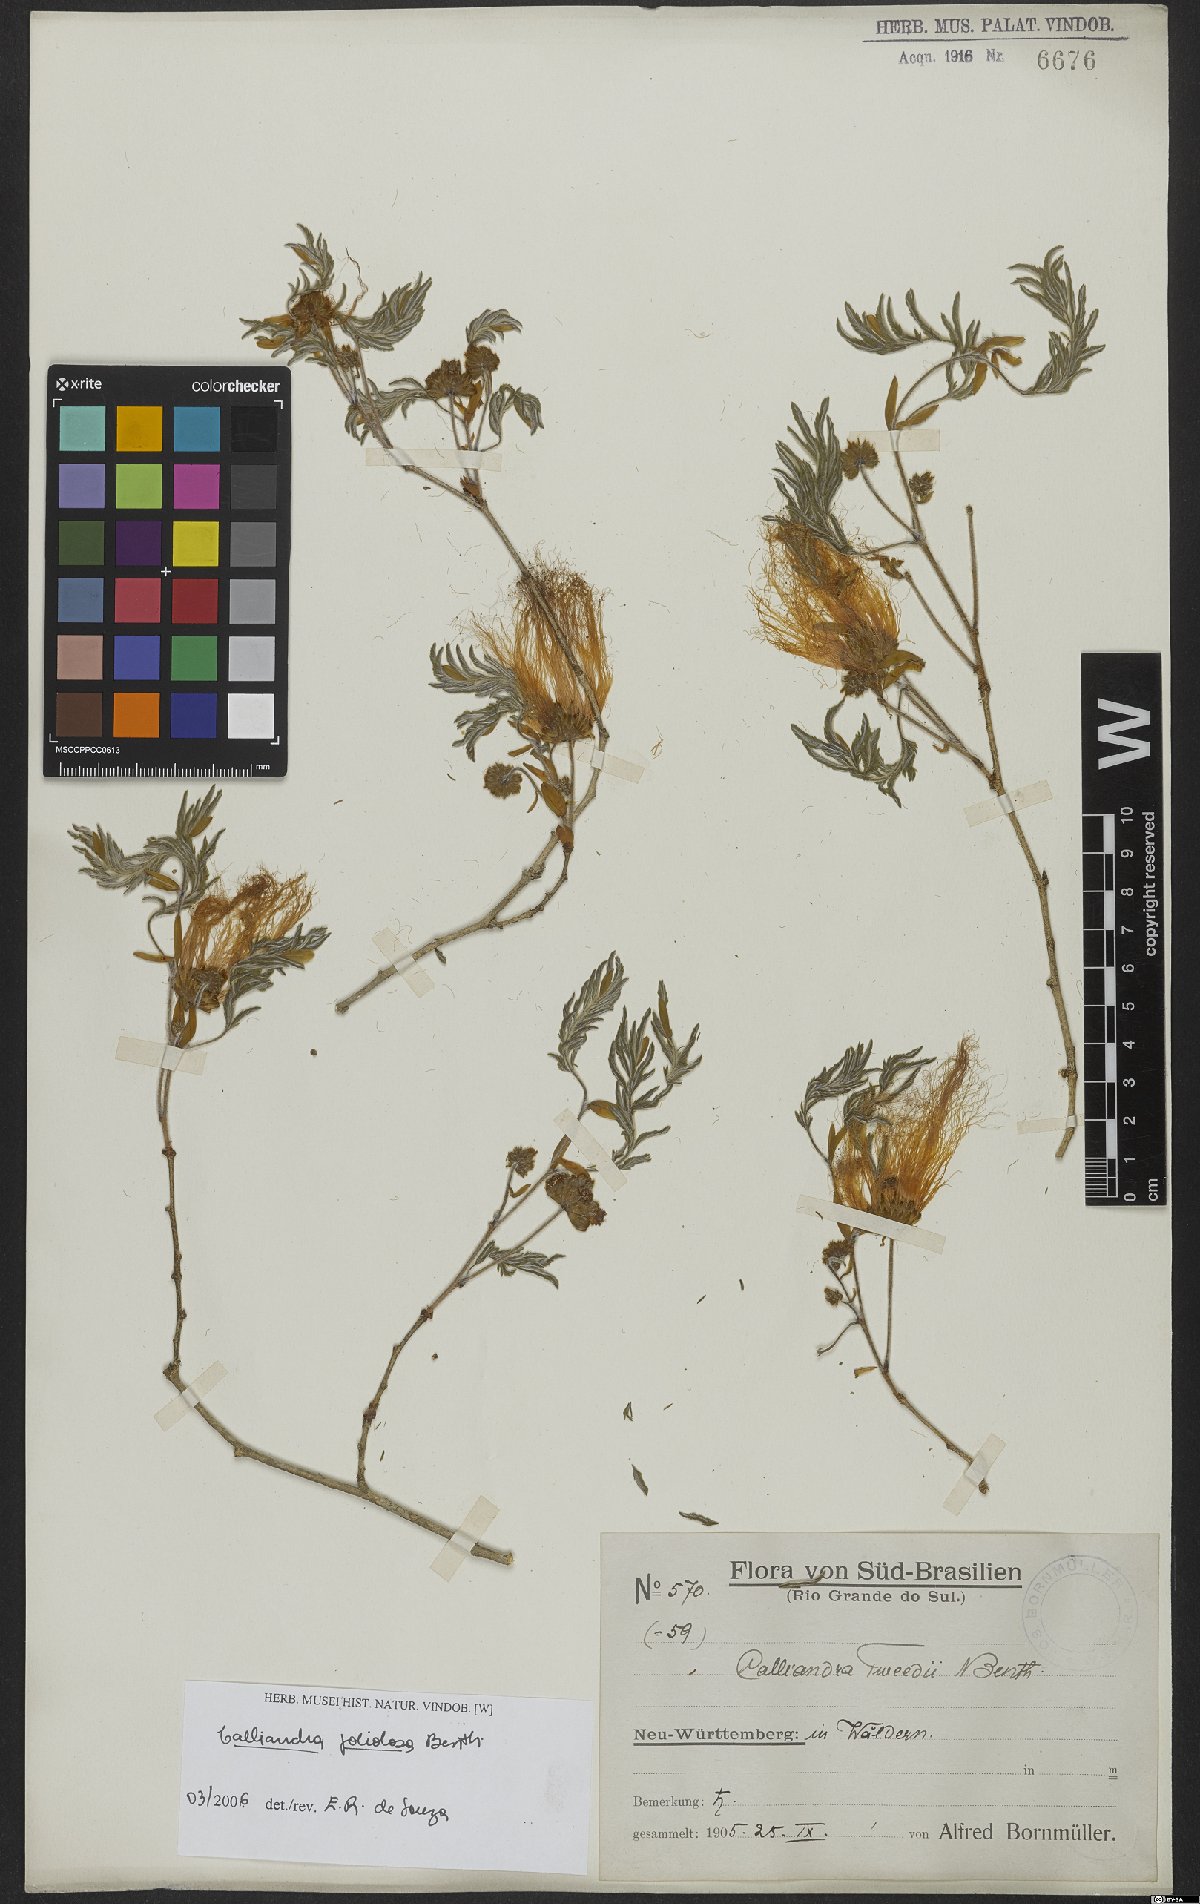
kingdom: Plantae
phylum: Tracheophyta
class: Magnoliopsida
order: Fabales
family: Fabaceae
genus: Calliandra
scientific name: Calliandra foliolosa
